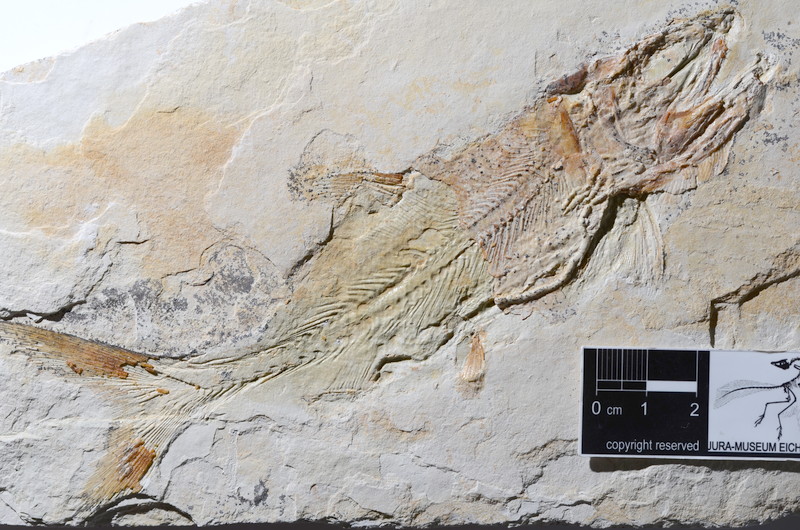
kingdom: Animalia
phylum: Chordata
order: Amiiformes
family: Caturidae
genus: Caturus
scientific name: Caturus furcatus
